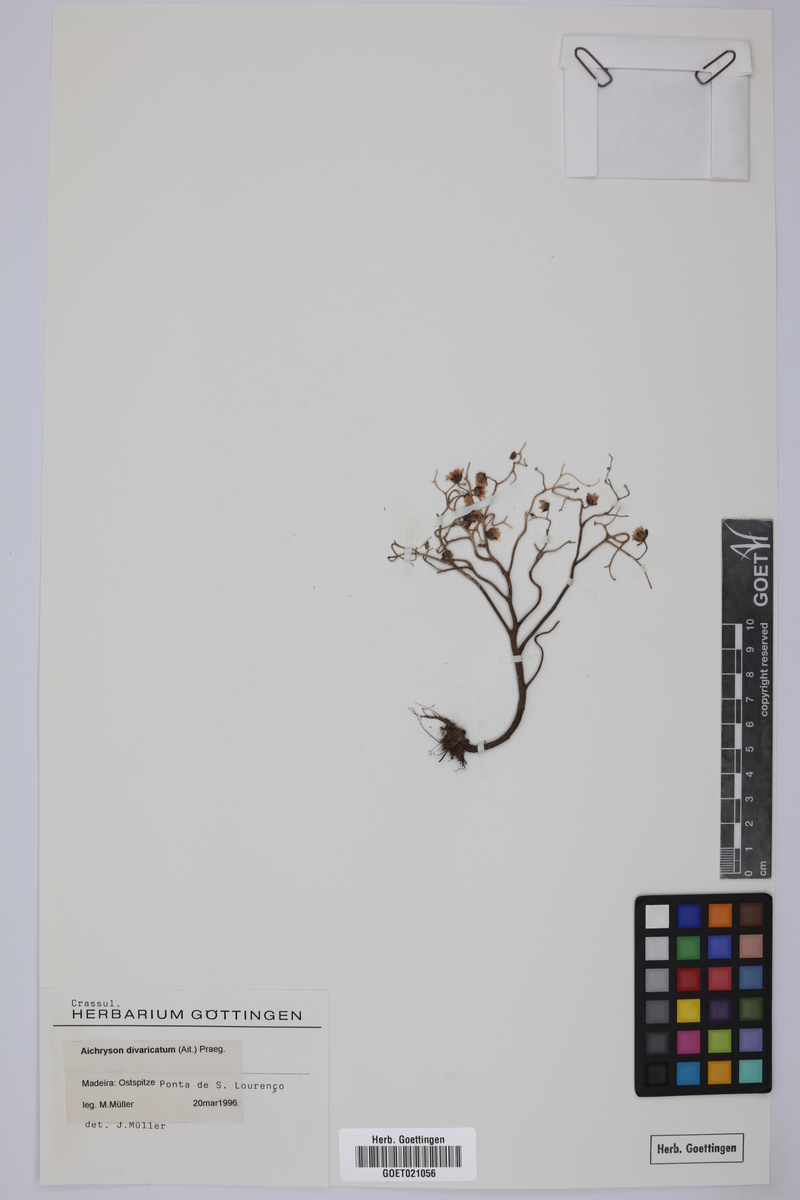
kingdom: Plantae
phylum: Tracheophyta
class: Magnoliopsida
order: Saxifragales
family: Crassulaceae
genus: Aichryson
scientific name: Aichryson divaricatum
